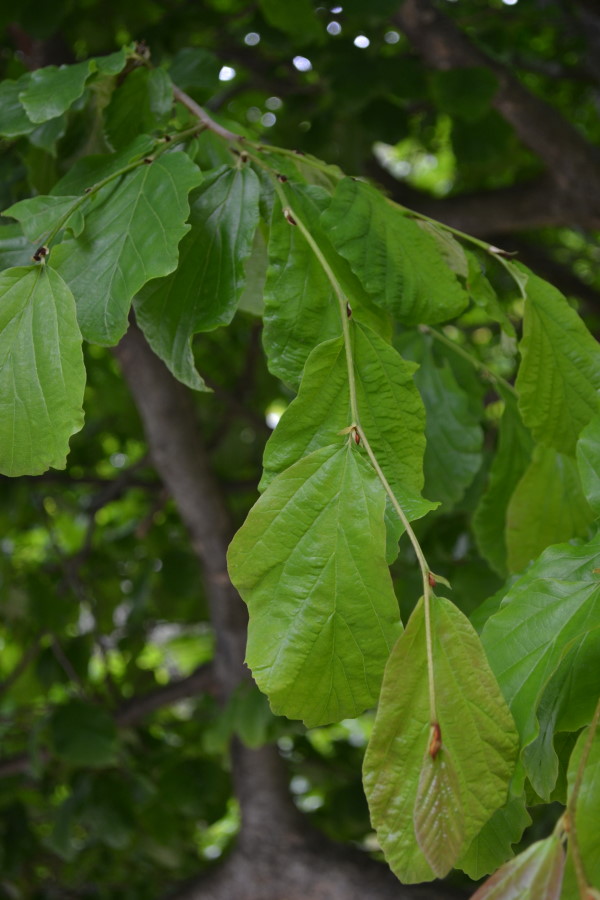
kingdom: Plantae
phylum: Tracheophyta
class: Magnoliopsida
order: Saxifragales
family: Hamamelidaceae
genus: Parrotia
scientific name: Parrotia persica
